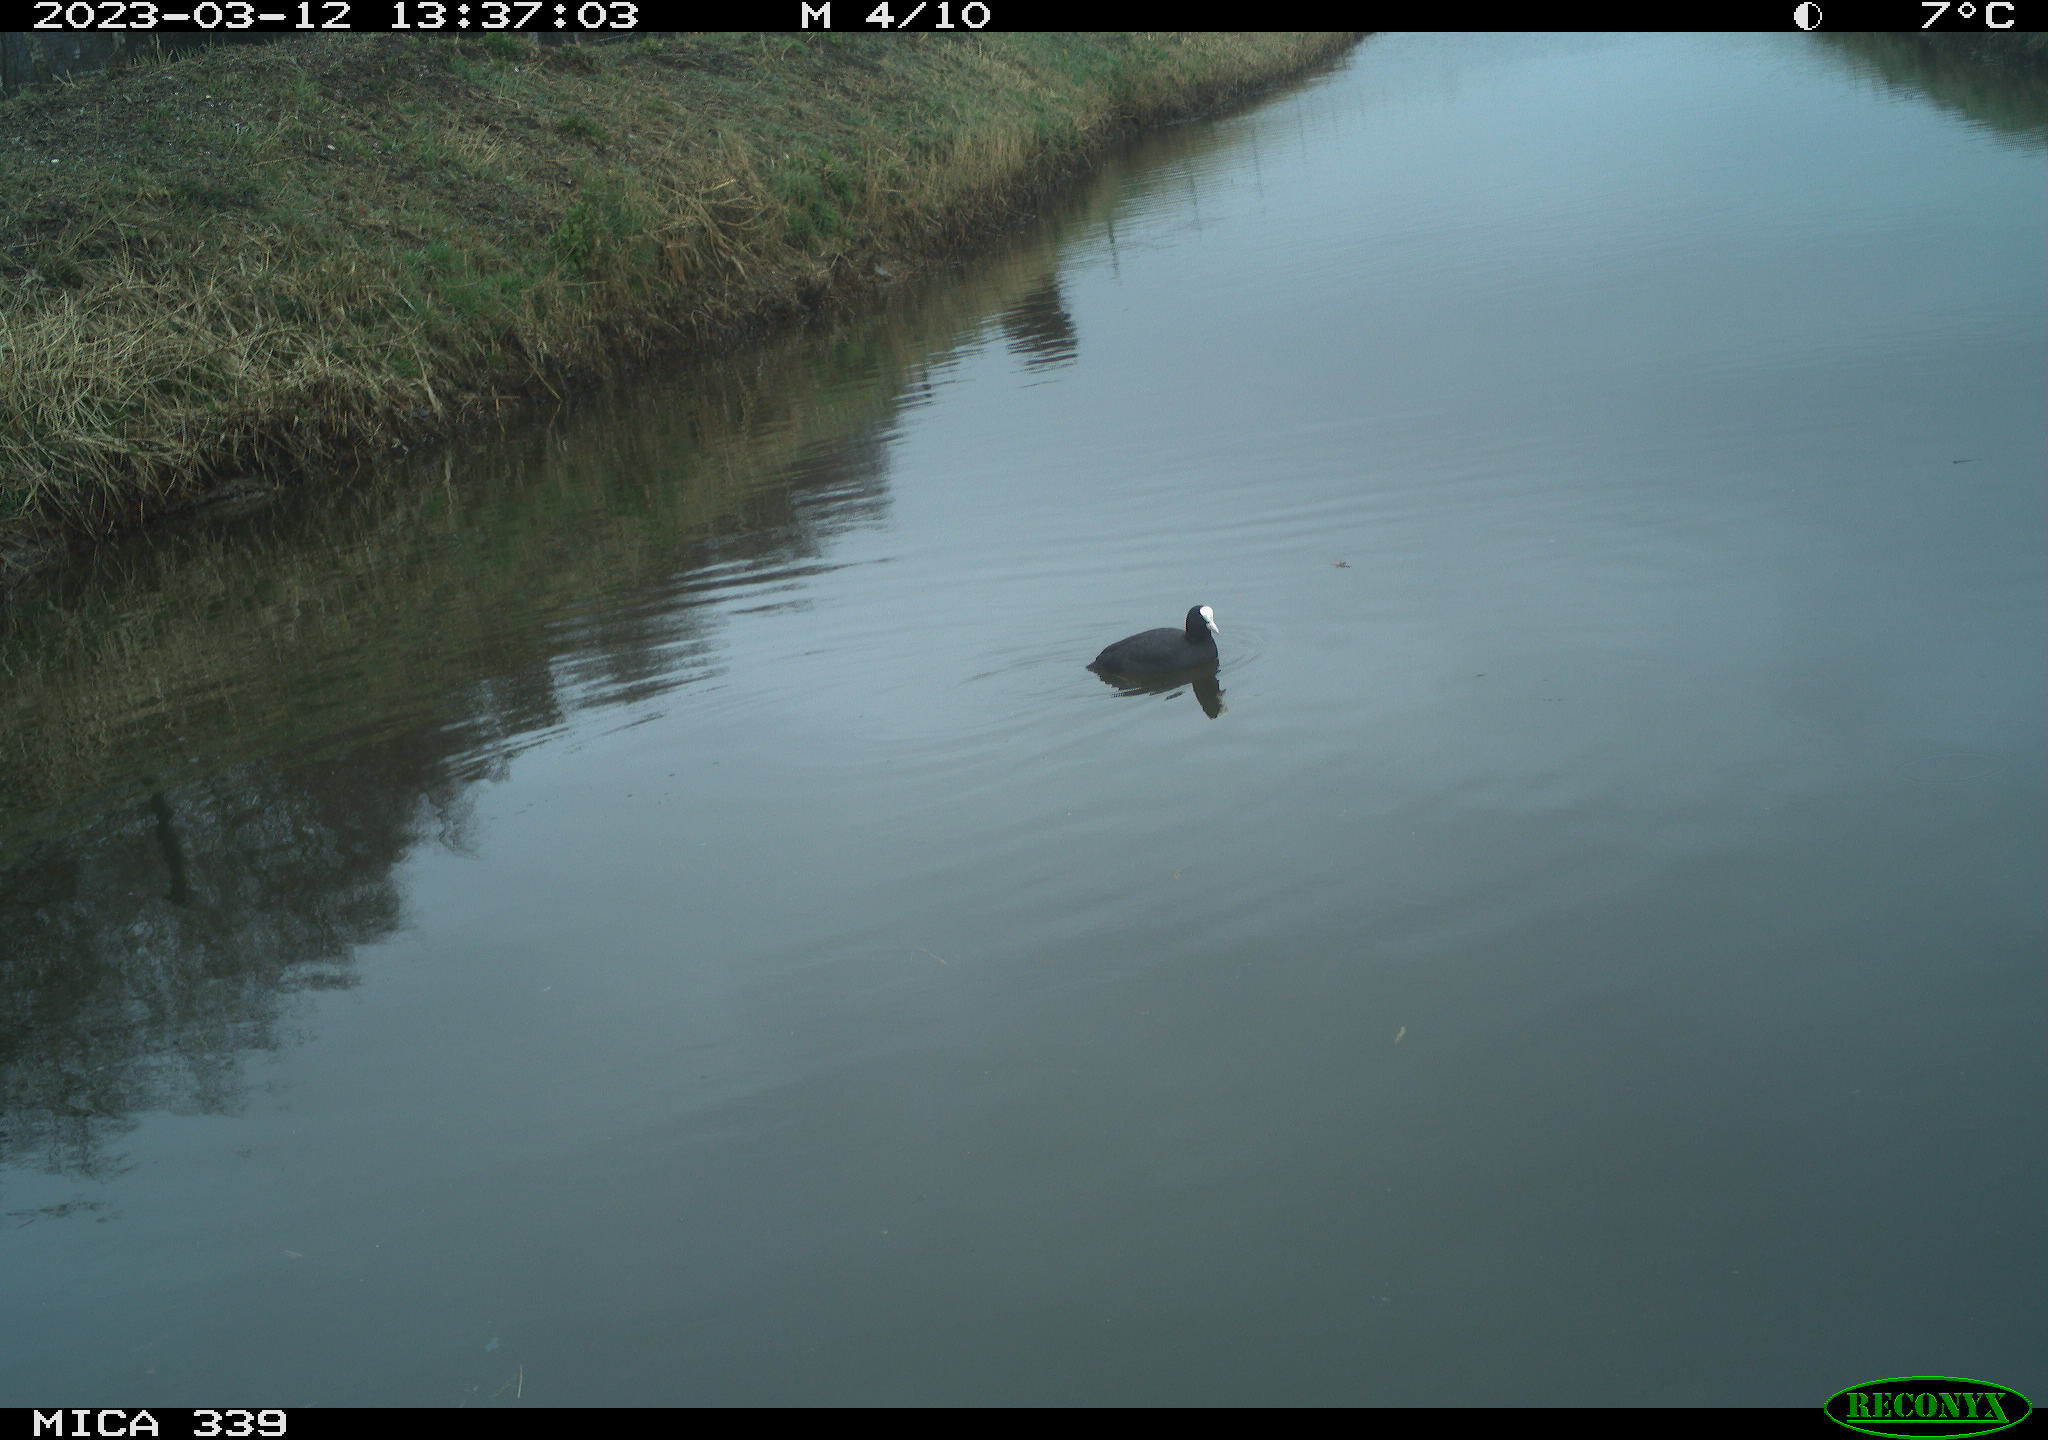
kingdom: Animalia
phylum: Chordata
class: Aves
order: Gruiformes
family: Rallidae
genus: Fulica
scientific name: Fulica atra
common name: Eurasian coot
